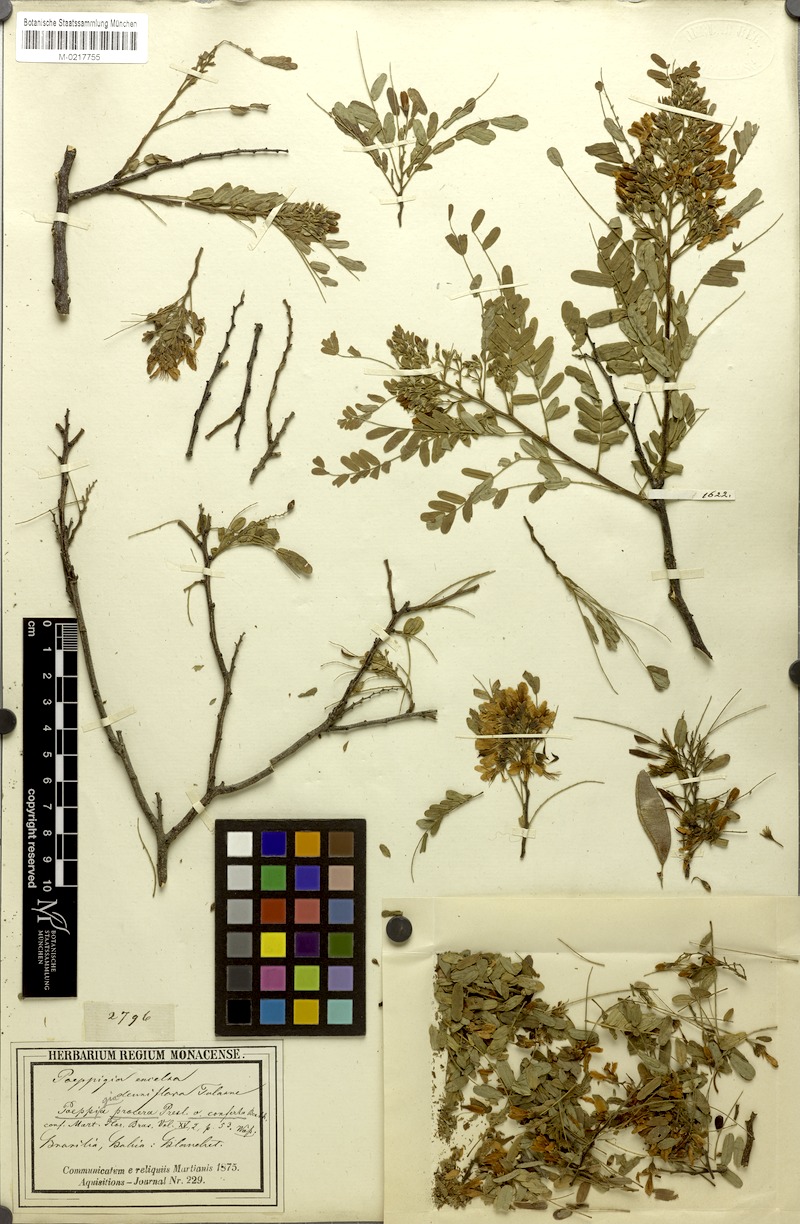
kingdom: Plantae
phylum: Tracheophyta
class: Magnoliopsida
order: Fabales
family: Fabaceae
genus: Acosmium
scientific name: Acosmium cardenasii
